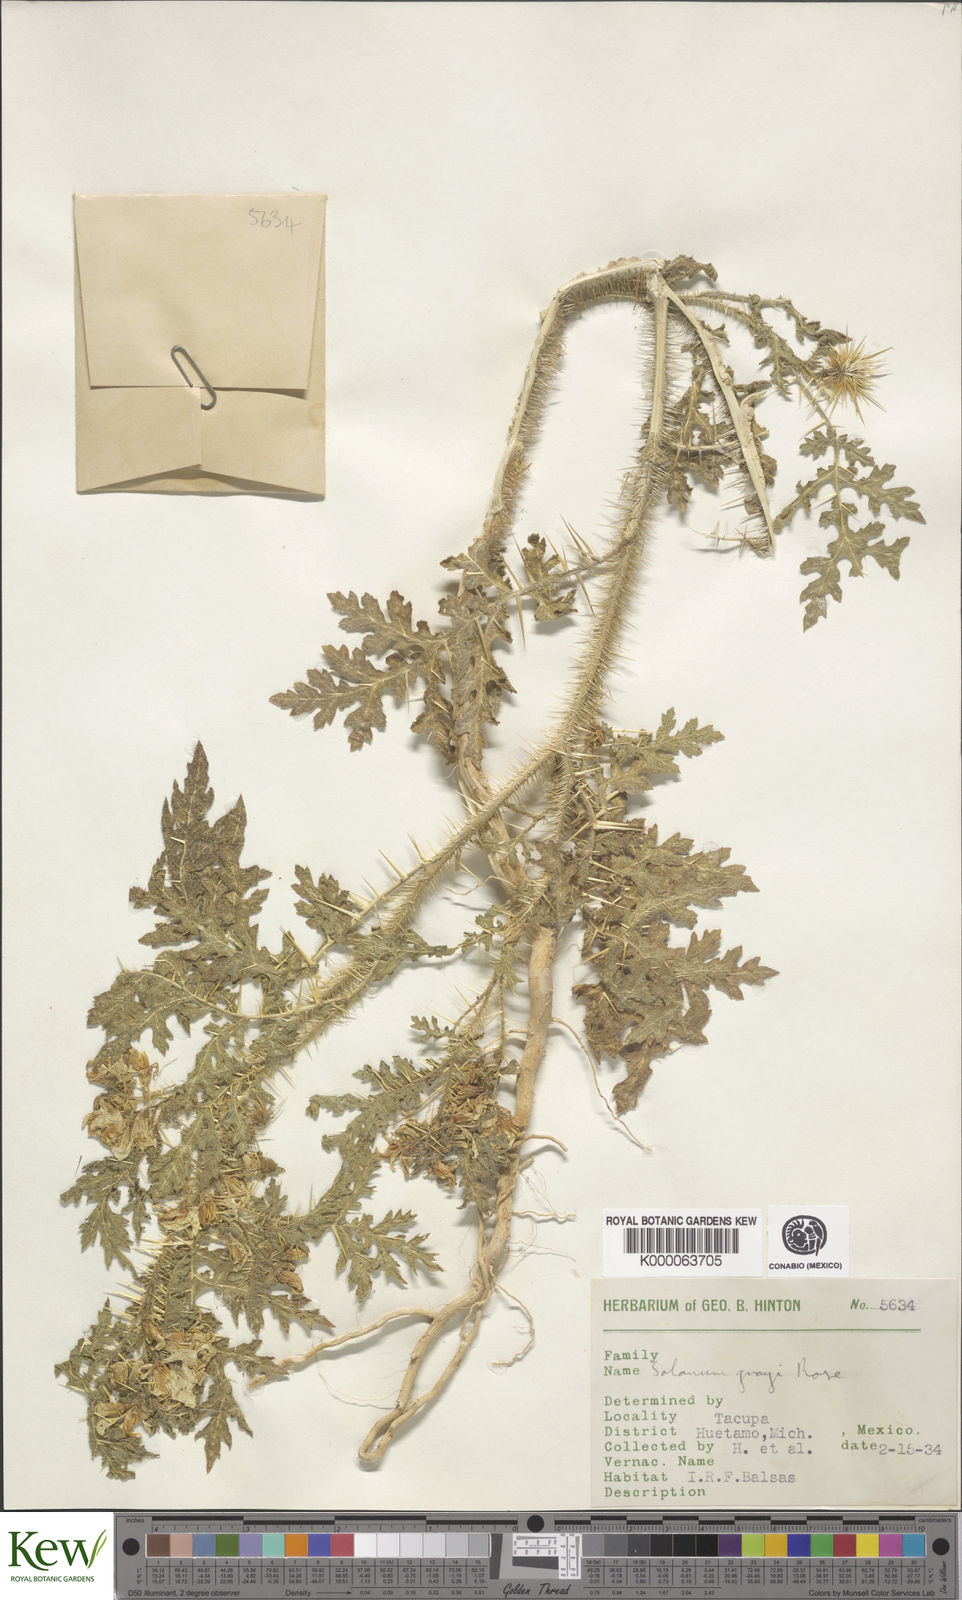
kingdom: Plantae
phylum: Tracheophyta
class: Magnoliopsida
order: Solanales
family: Solanaceae
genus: Solanum
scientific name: Solanum grayi
